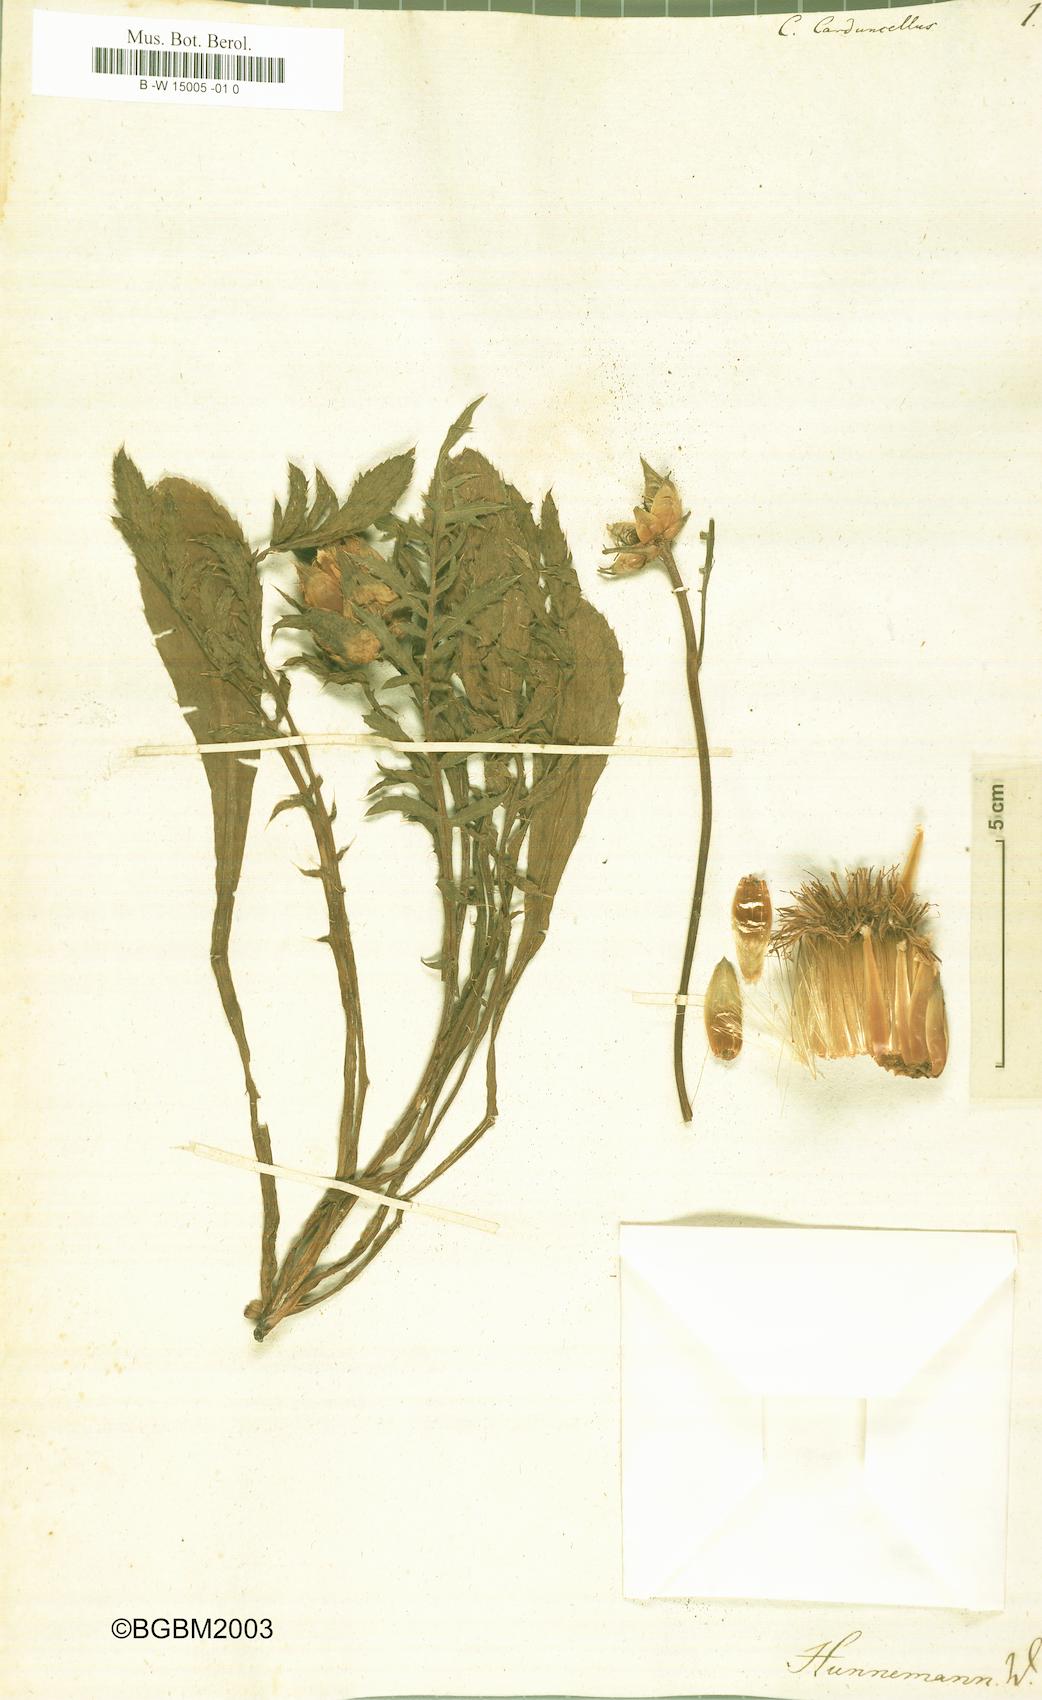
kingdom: Plantae
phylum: Tracheophyta
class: Magnoliopsida
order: Asterales
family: Asteraceae
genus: Carduncellus
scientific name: Carduncellus monspelliensium
